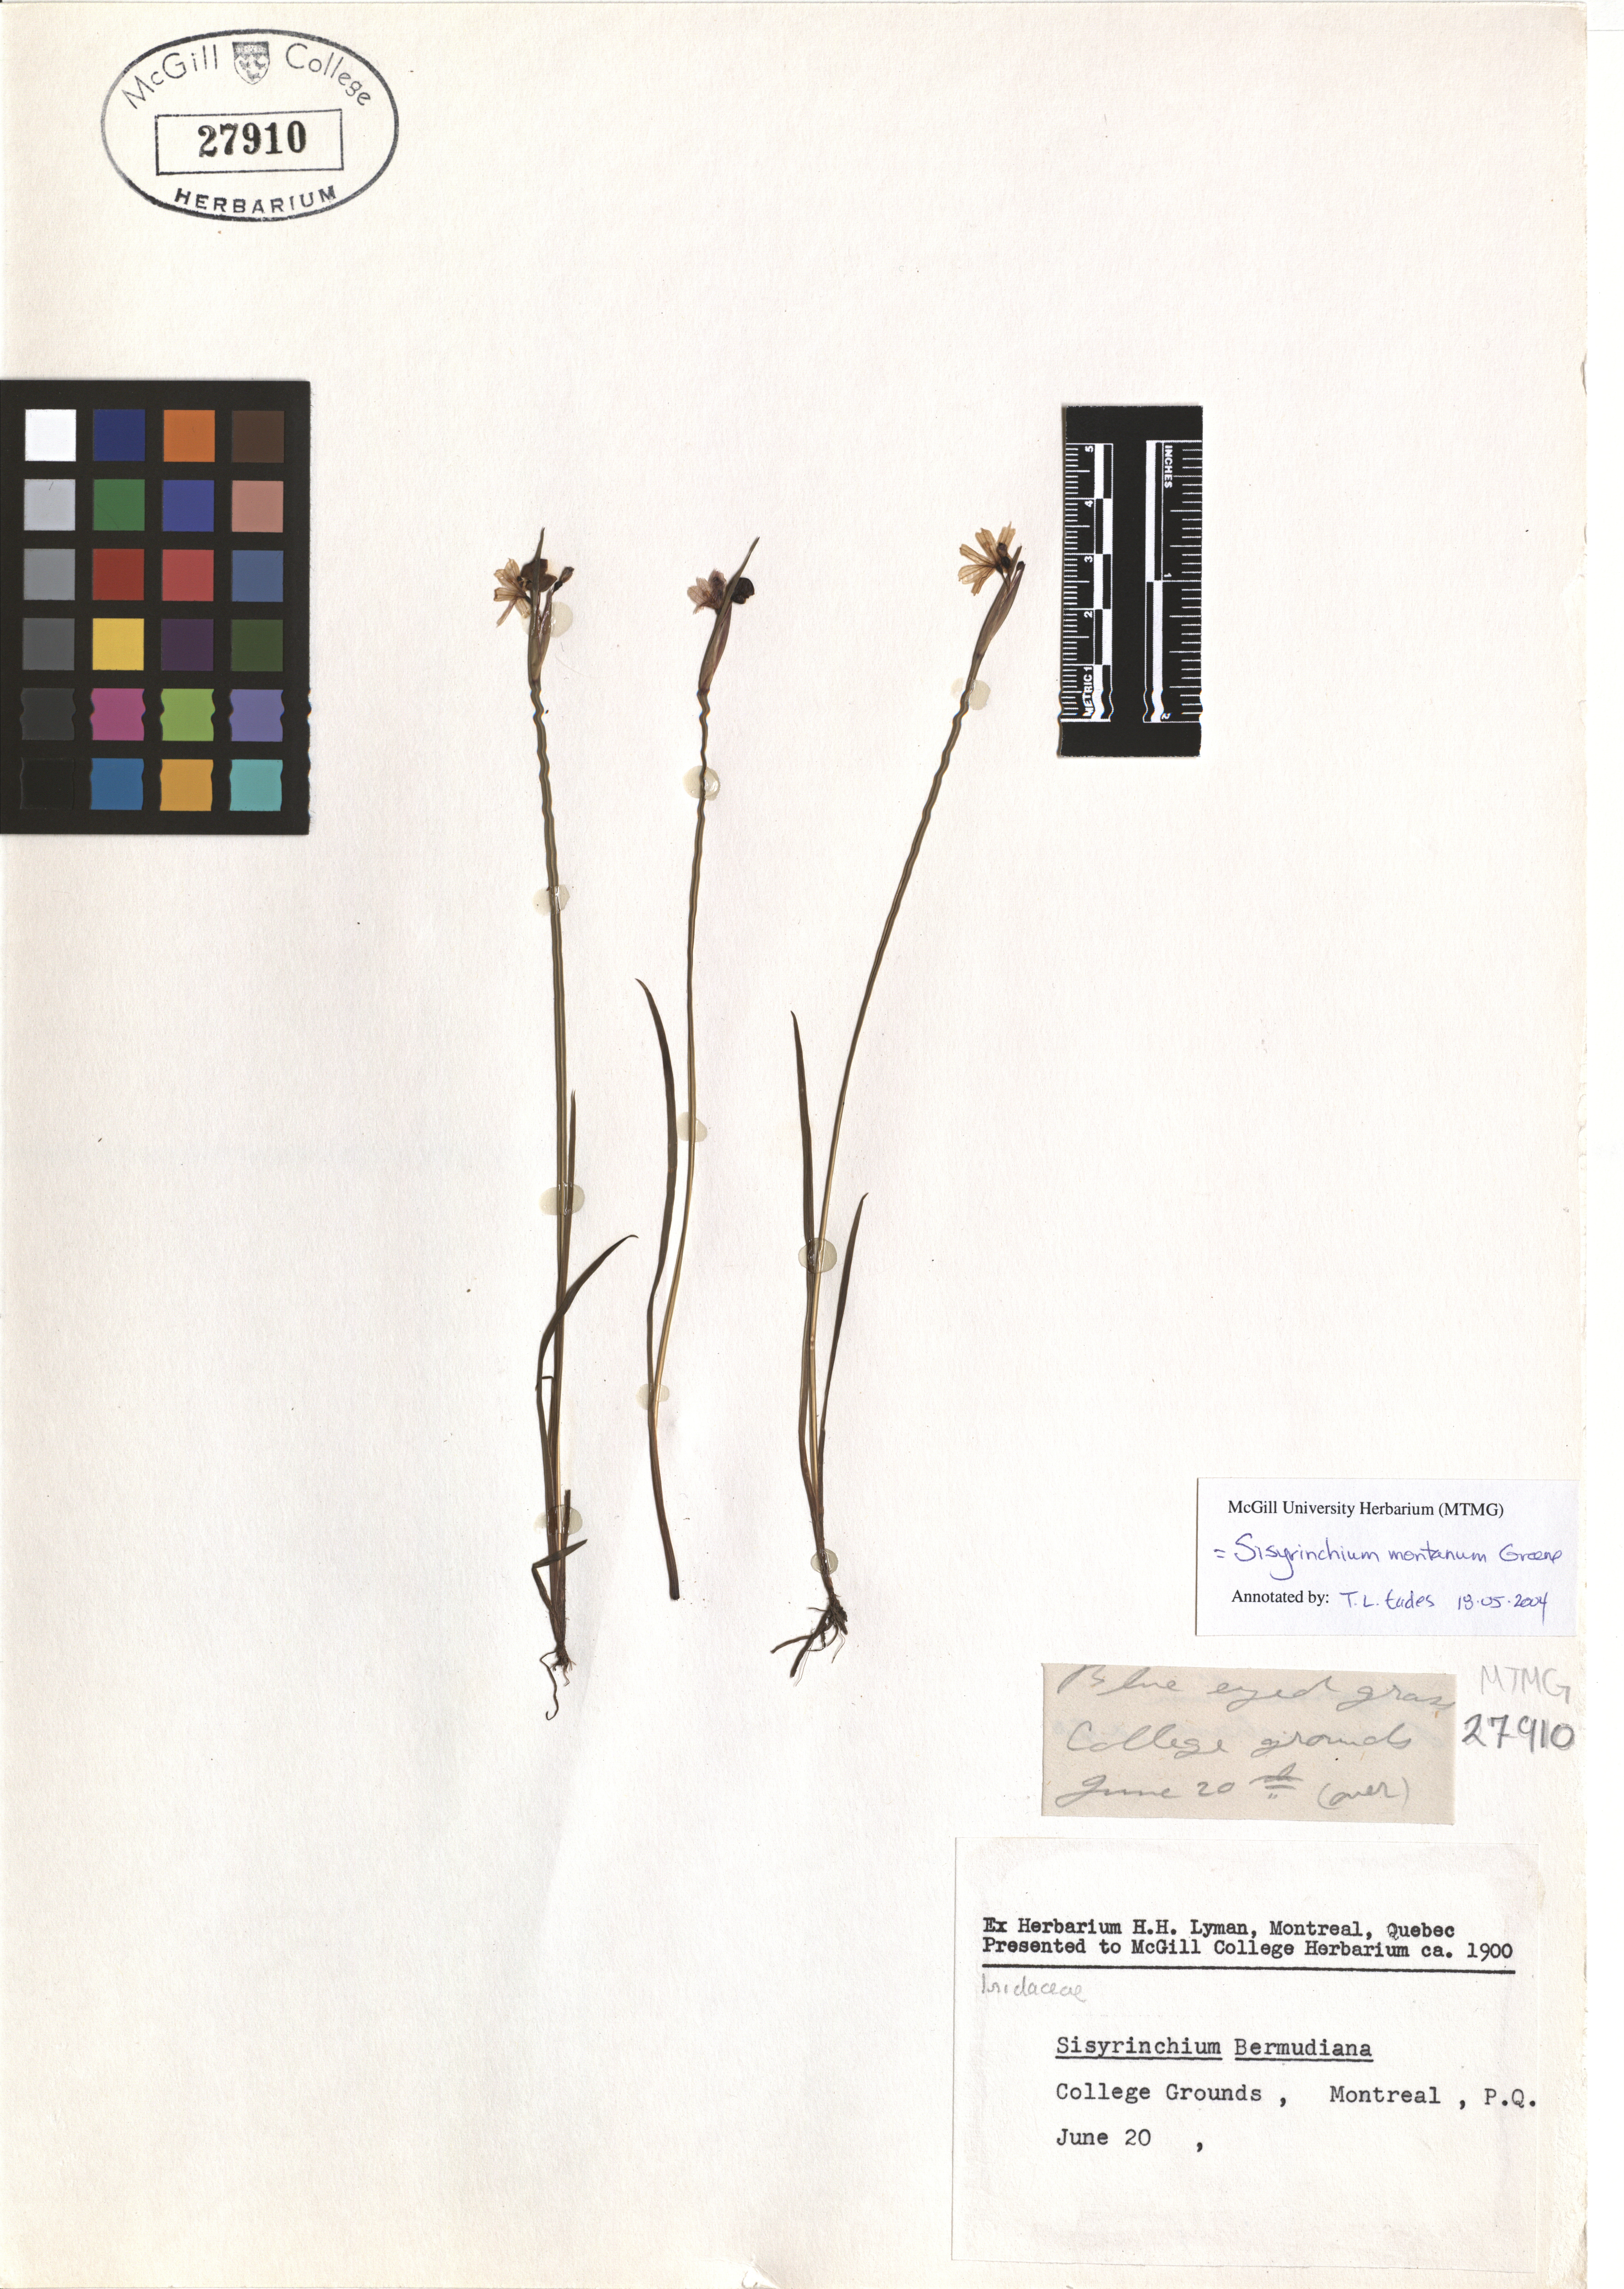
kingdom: Plantae
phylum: Tracheophyta
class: Liliopsida
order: Asparagales
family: Iridaceae
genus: Sisyrinchium
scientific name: Sisyrinchium montanum
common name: American blue-eyed-grass
